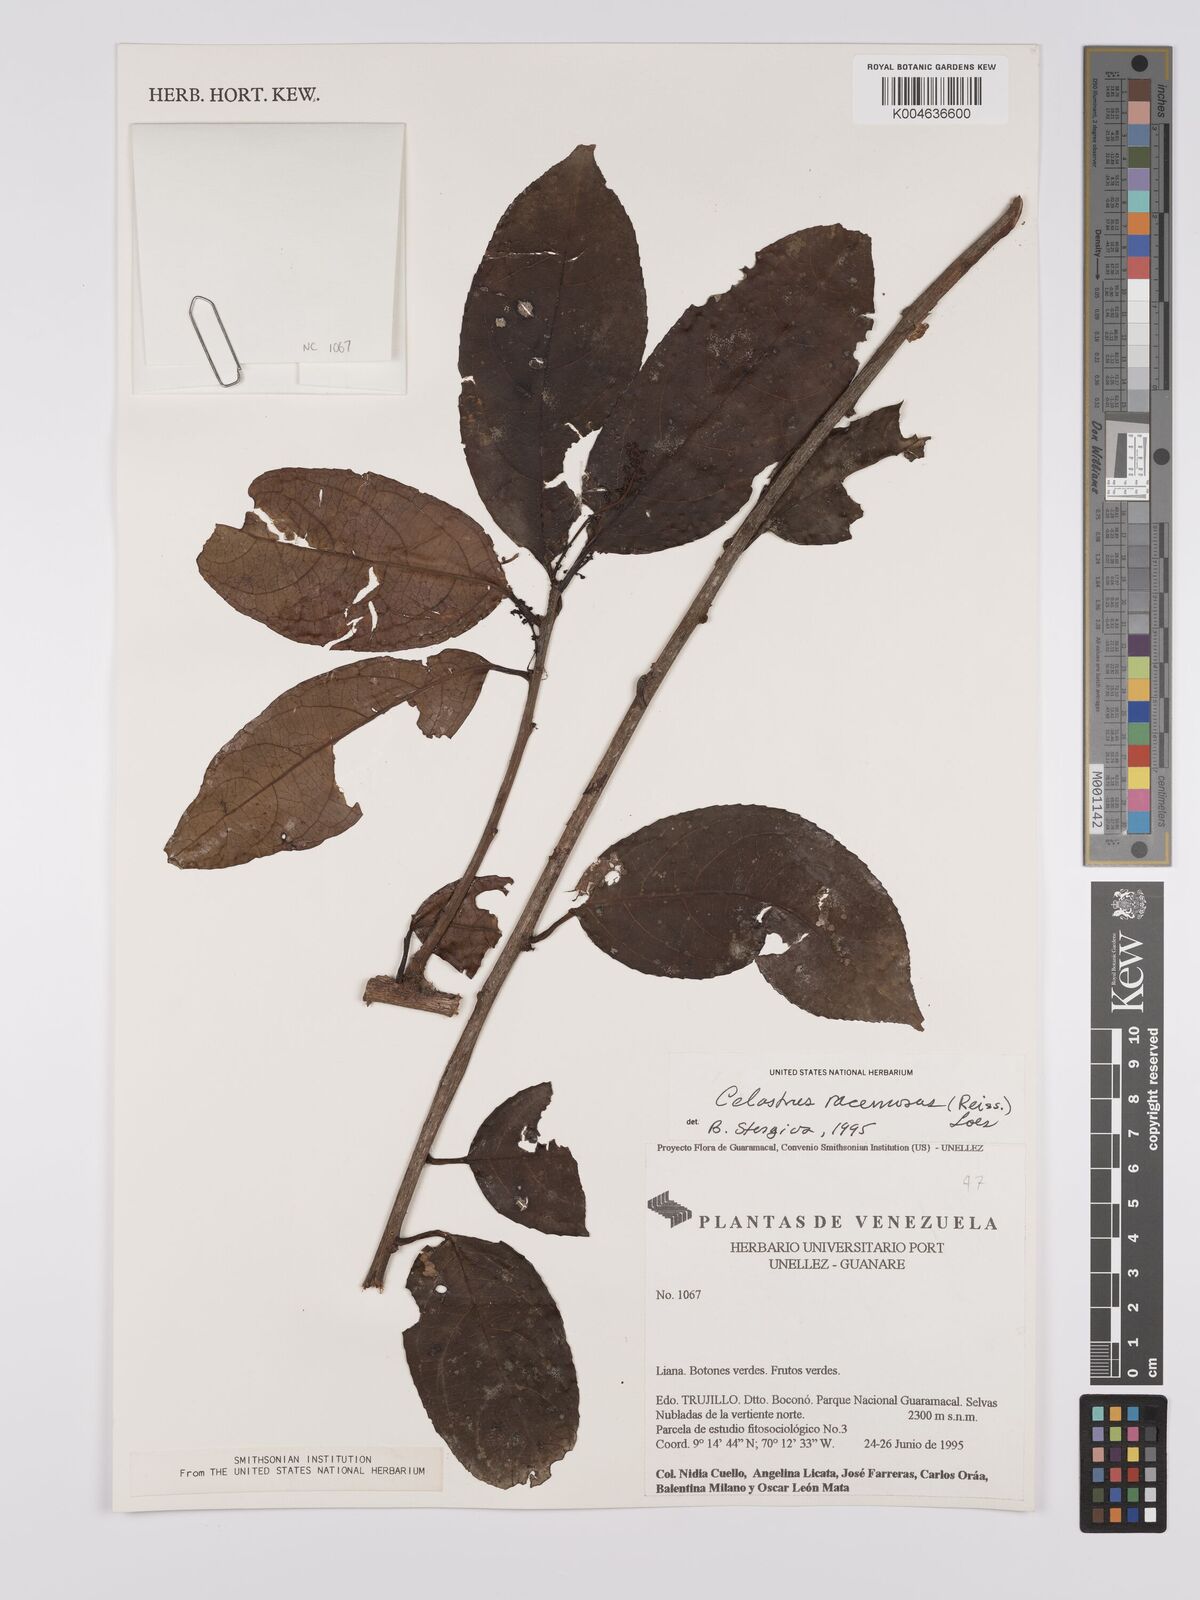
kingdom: Plantae
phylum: Tracheophyta
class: Magnoliopsida
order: Celastrales
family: Celastraceae
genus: Celastrus
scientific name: Celastrus
